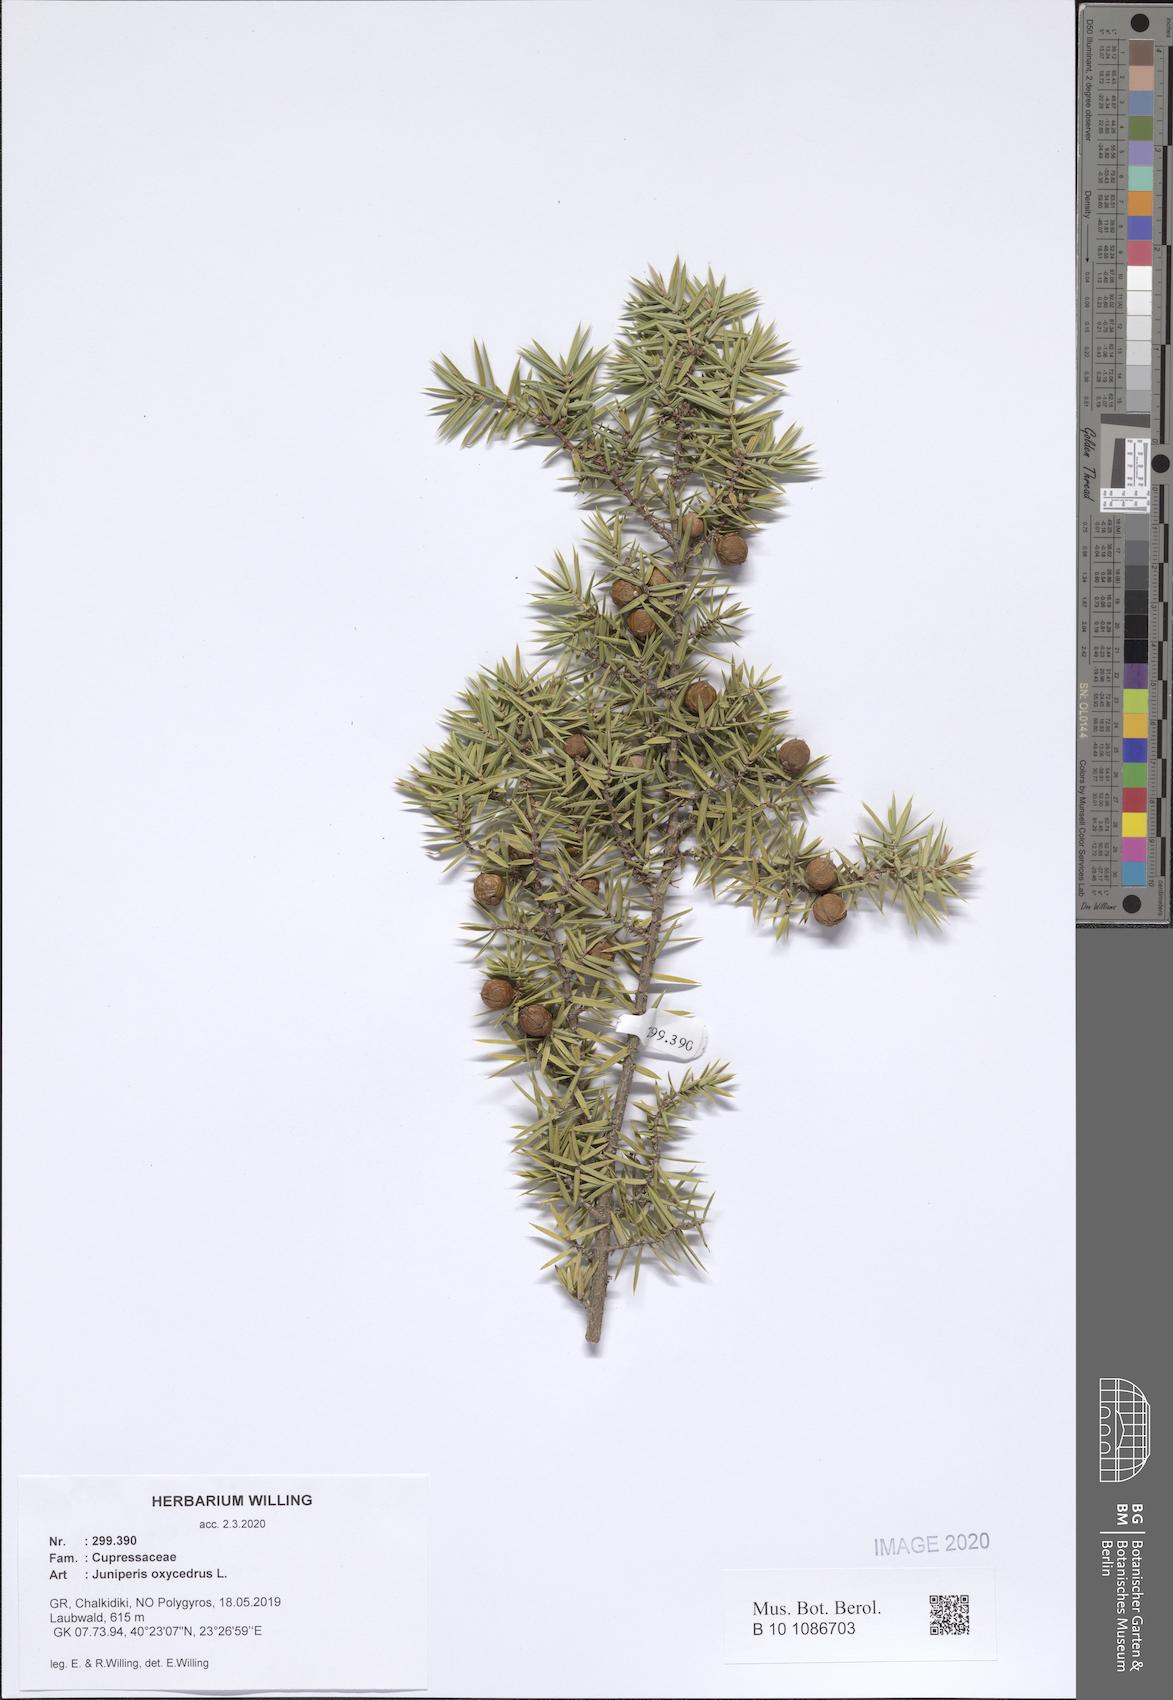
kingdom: Plantae
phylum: Tracheophyta
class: Pinopsida
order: Pinales
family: Cupressaceae
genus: Juniperus
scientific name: Juniperus oxycedrus
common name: Prickly juniper
